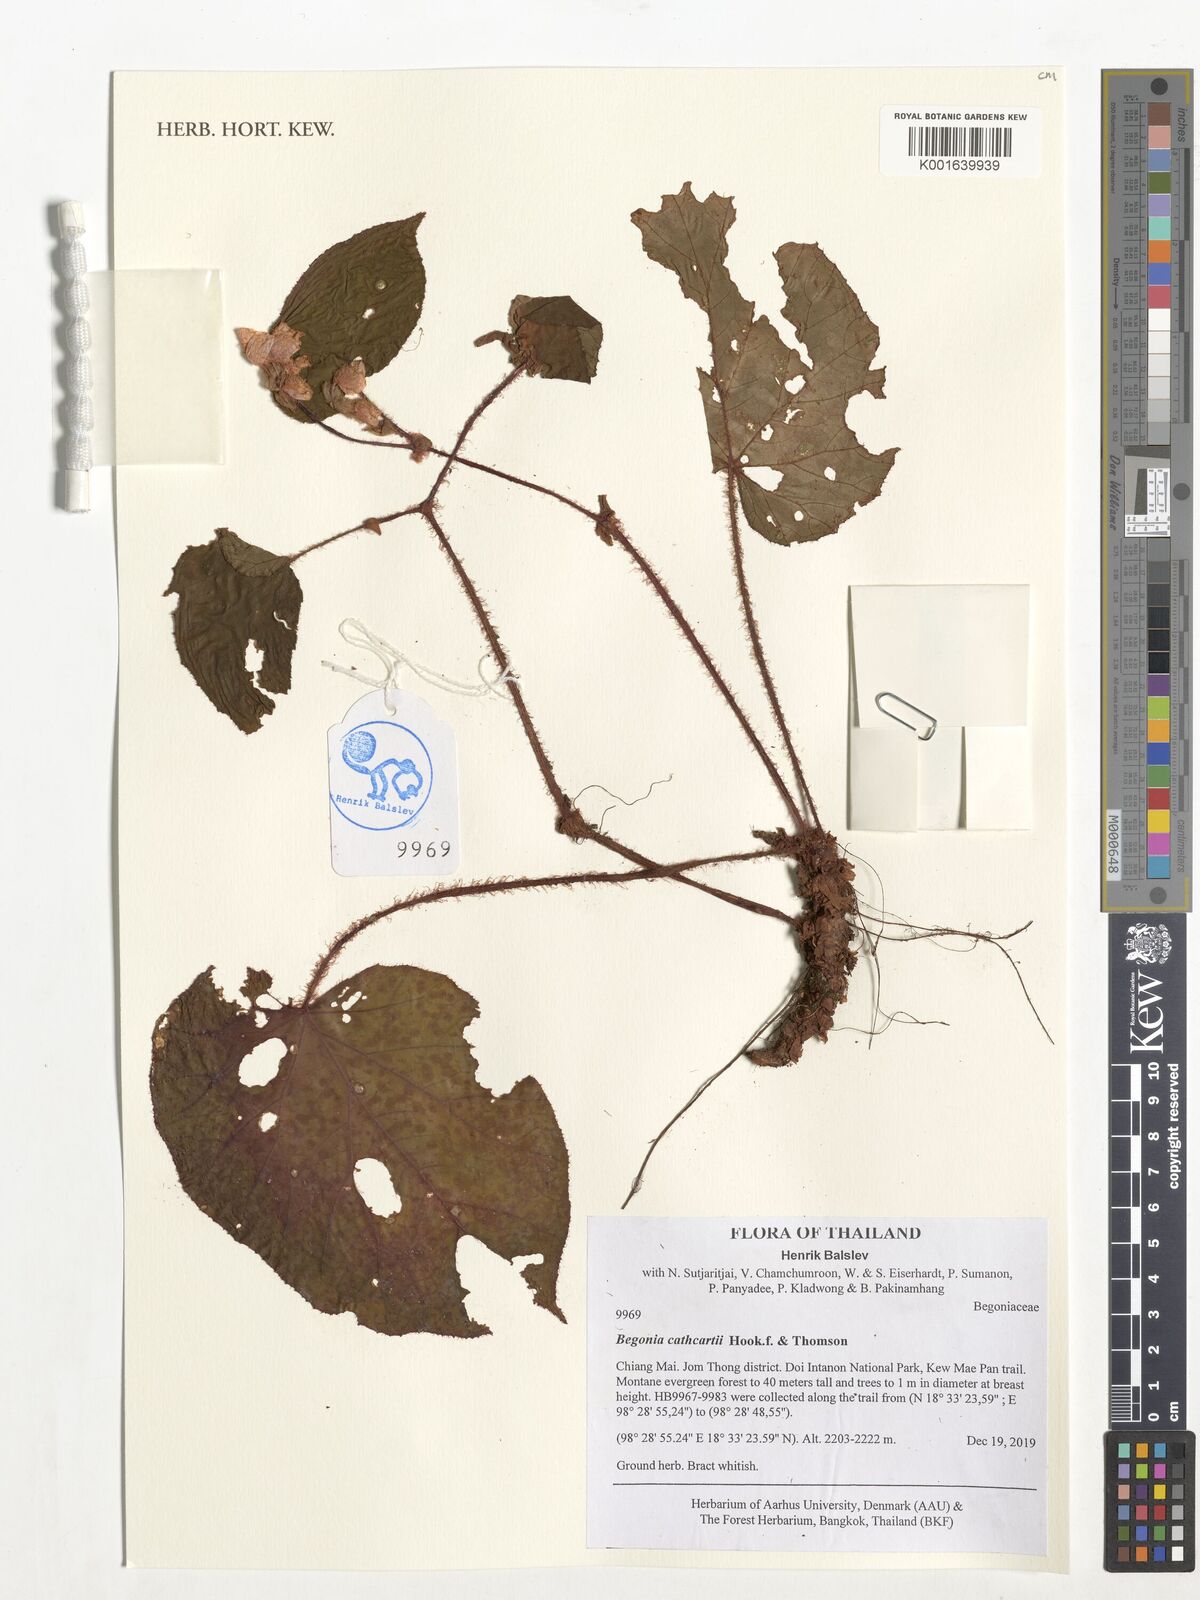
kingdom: Plantae
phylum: Tracheophyta
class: Magnoliopsida
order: Cucurbitales
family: Begoniaceae
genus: Begonia
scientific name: Begonia cathcartii
